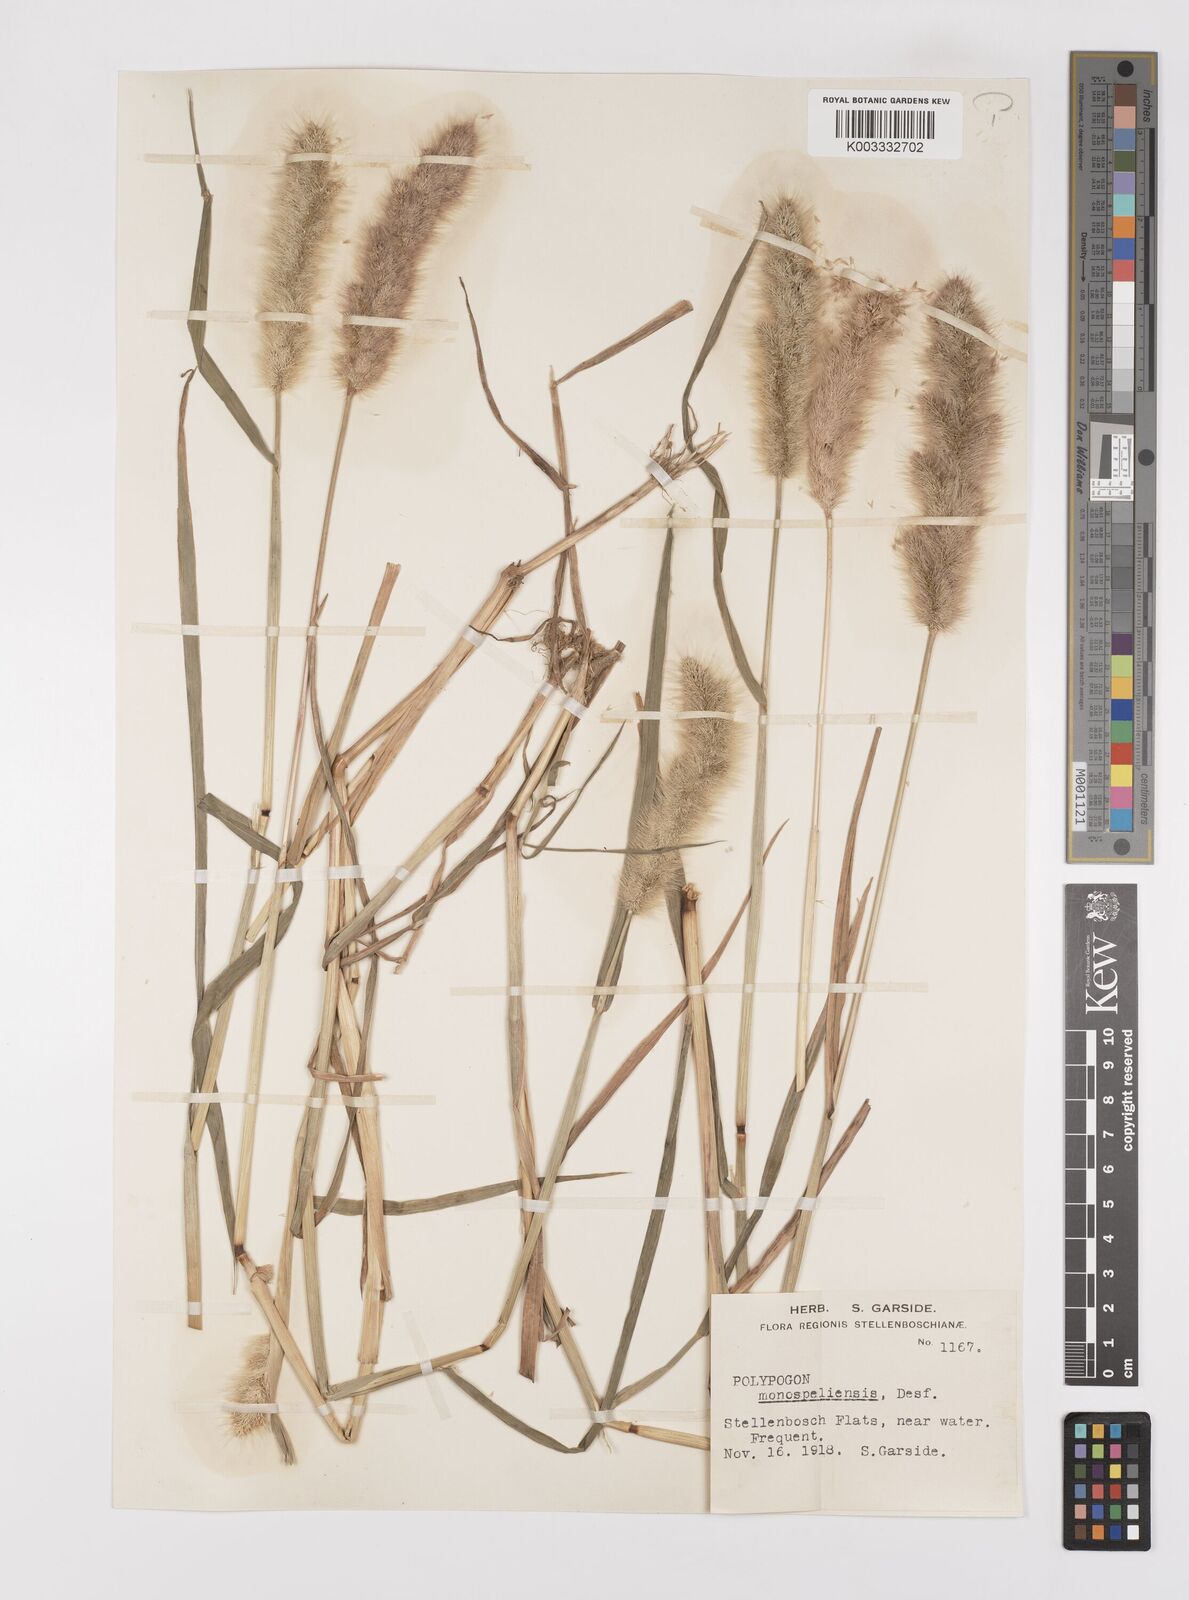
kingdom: Plantae
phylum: Tracheophyta
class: Liliopsida
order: Poales
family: Poaceae
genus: Polypogon
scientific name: Polypogon monspeliensis
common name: Annual rabbitsfoot grass
